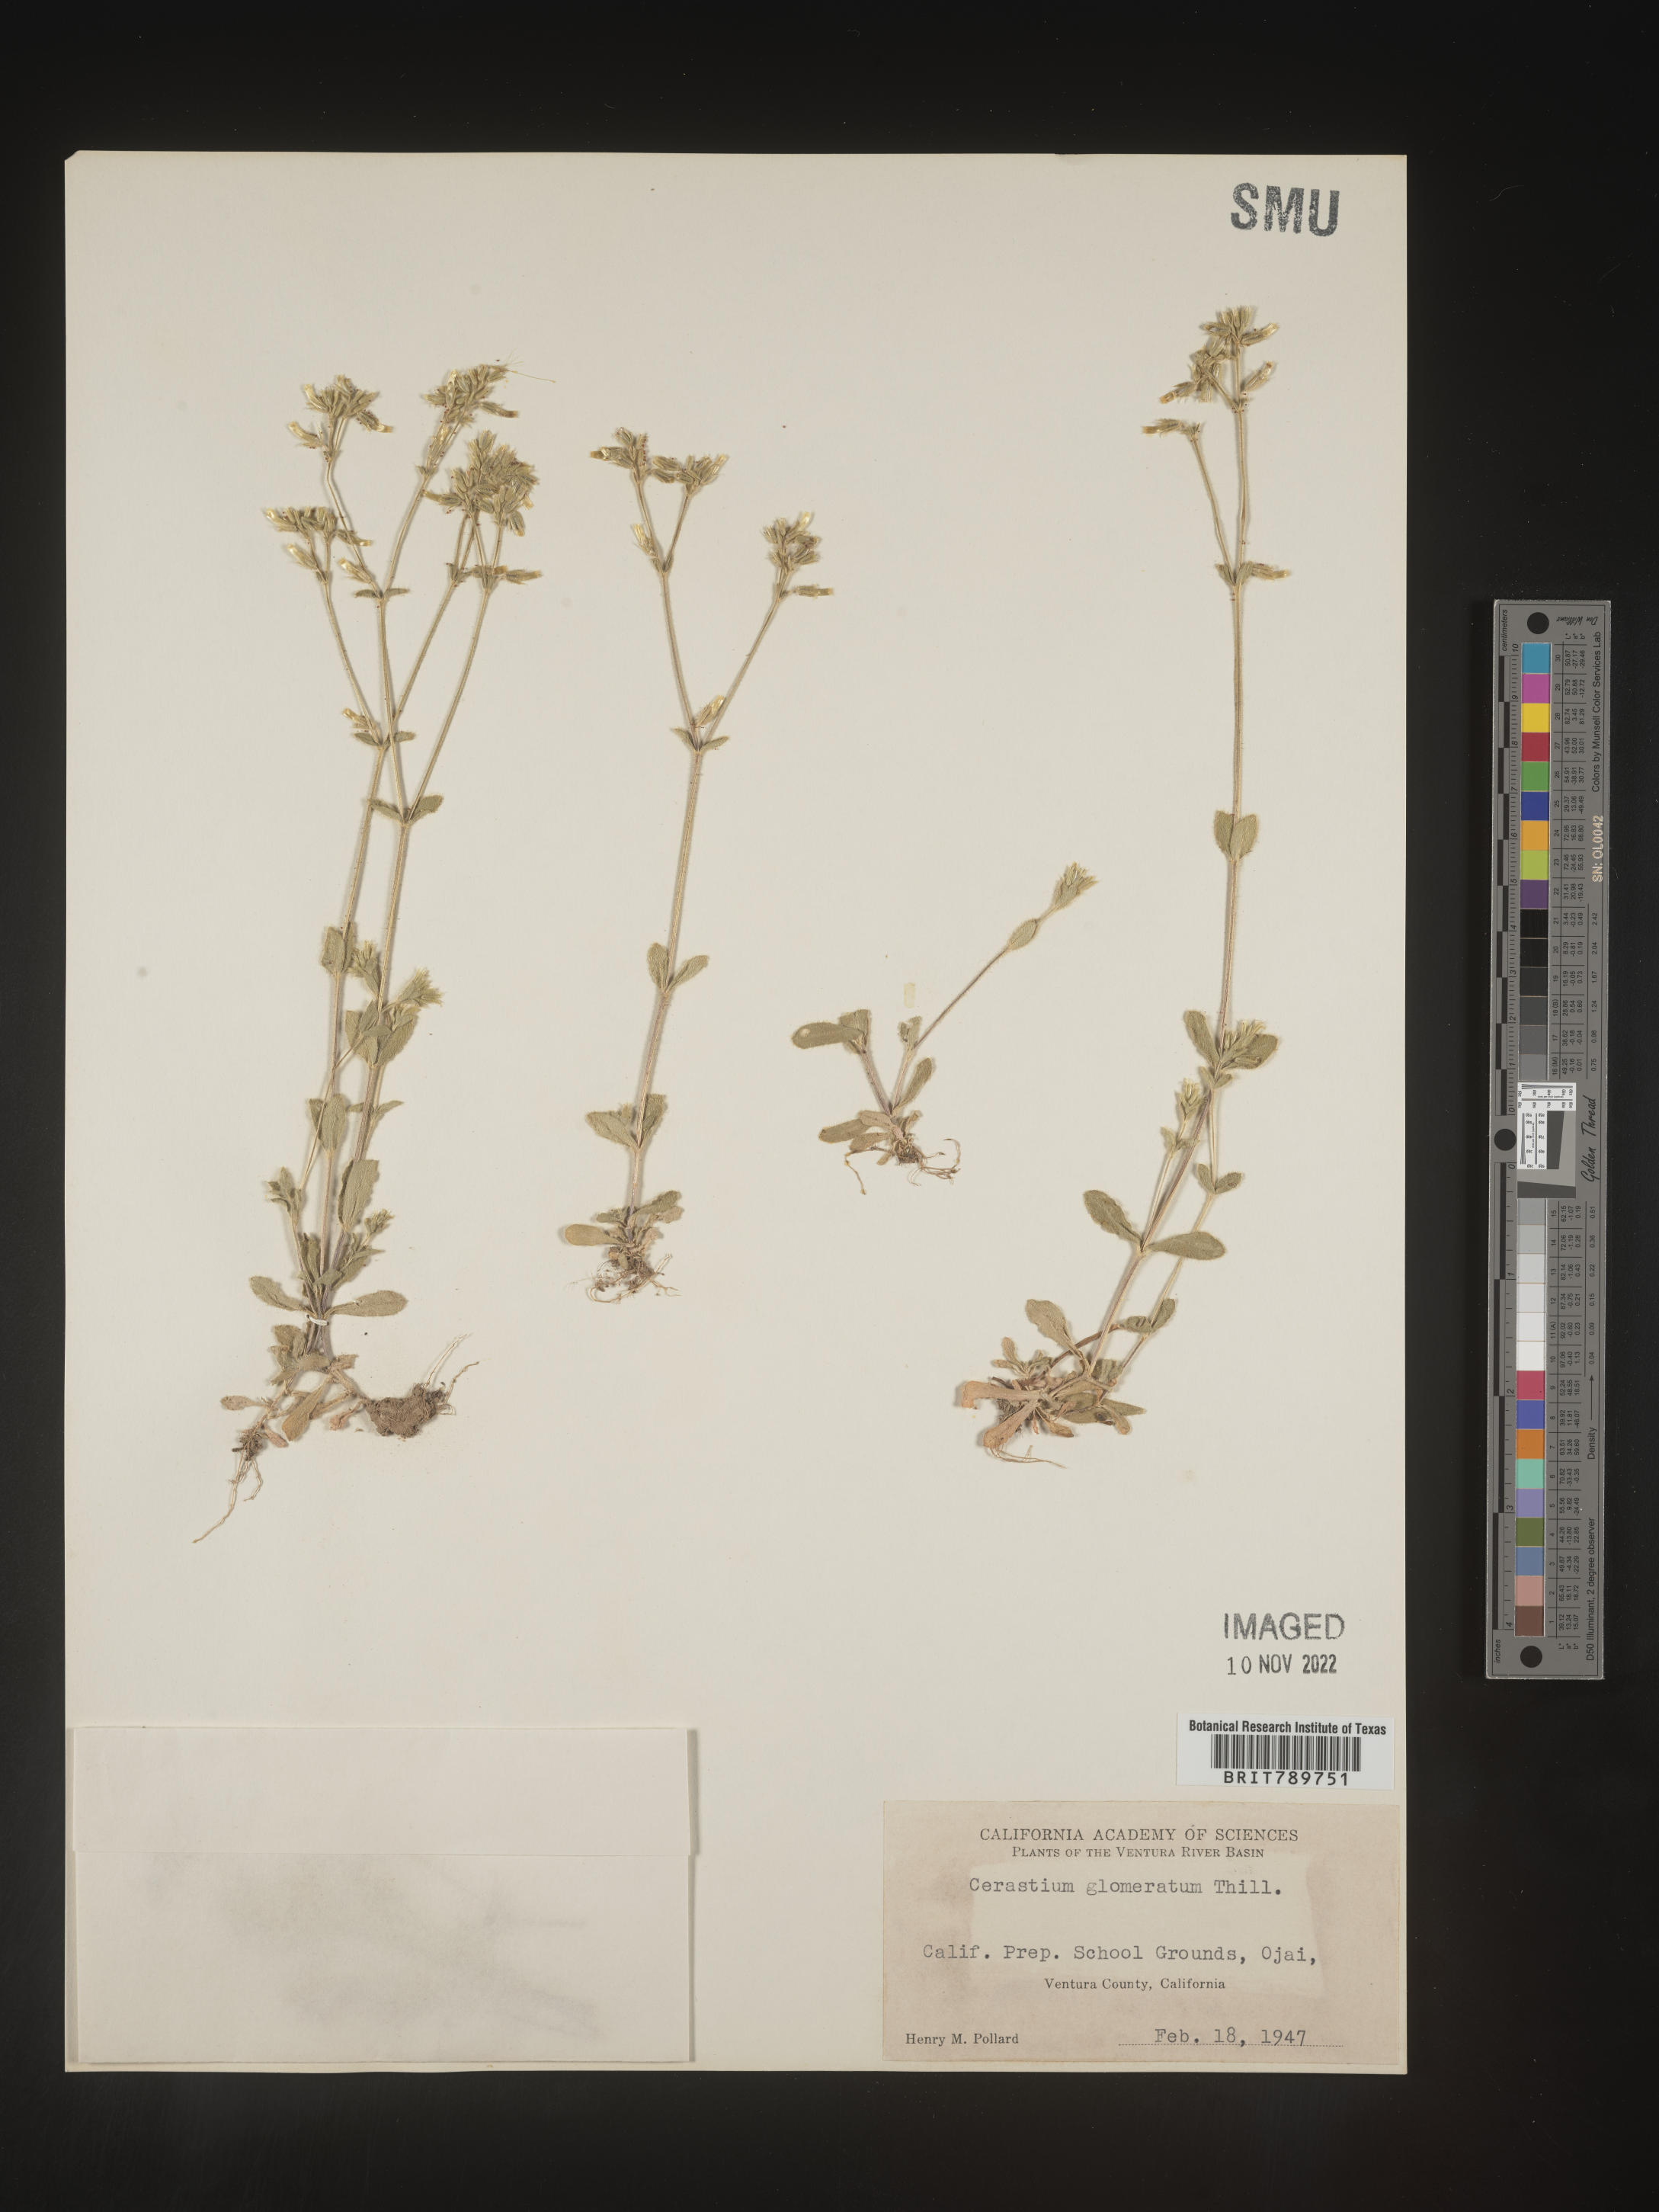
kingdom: Plantae
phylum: Tracheophyta
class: Magnoliopsida
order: Caryophyllales
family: Caryophyllaceae
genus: Cerastium
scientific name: Cerastium glomeratum
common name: Sticky chickweed
